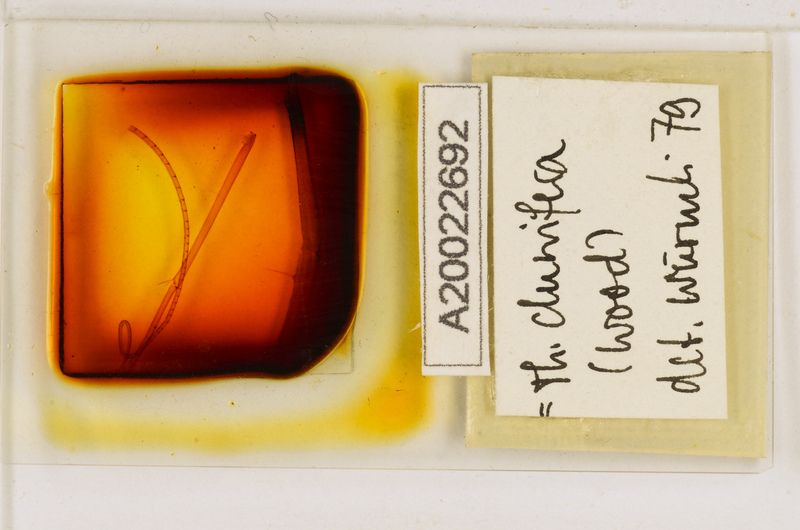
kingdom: Animalia
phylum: Arthropoda
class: Chilopoda
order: Scutigeromorpha
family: Scutigeridae
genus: Thereuopoda
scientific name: Thereuopoda clunifera
